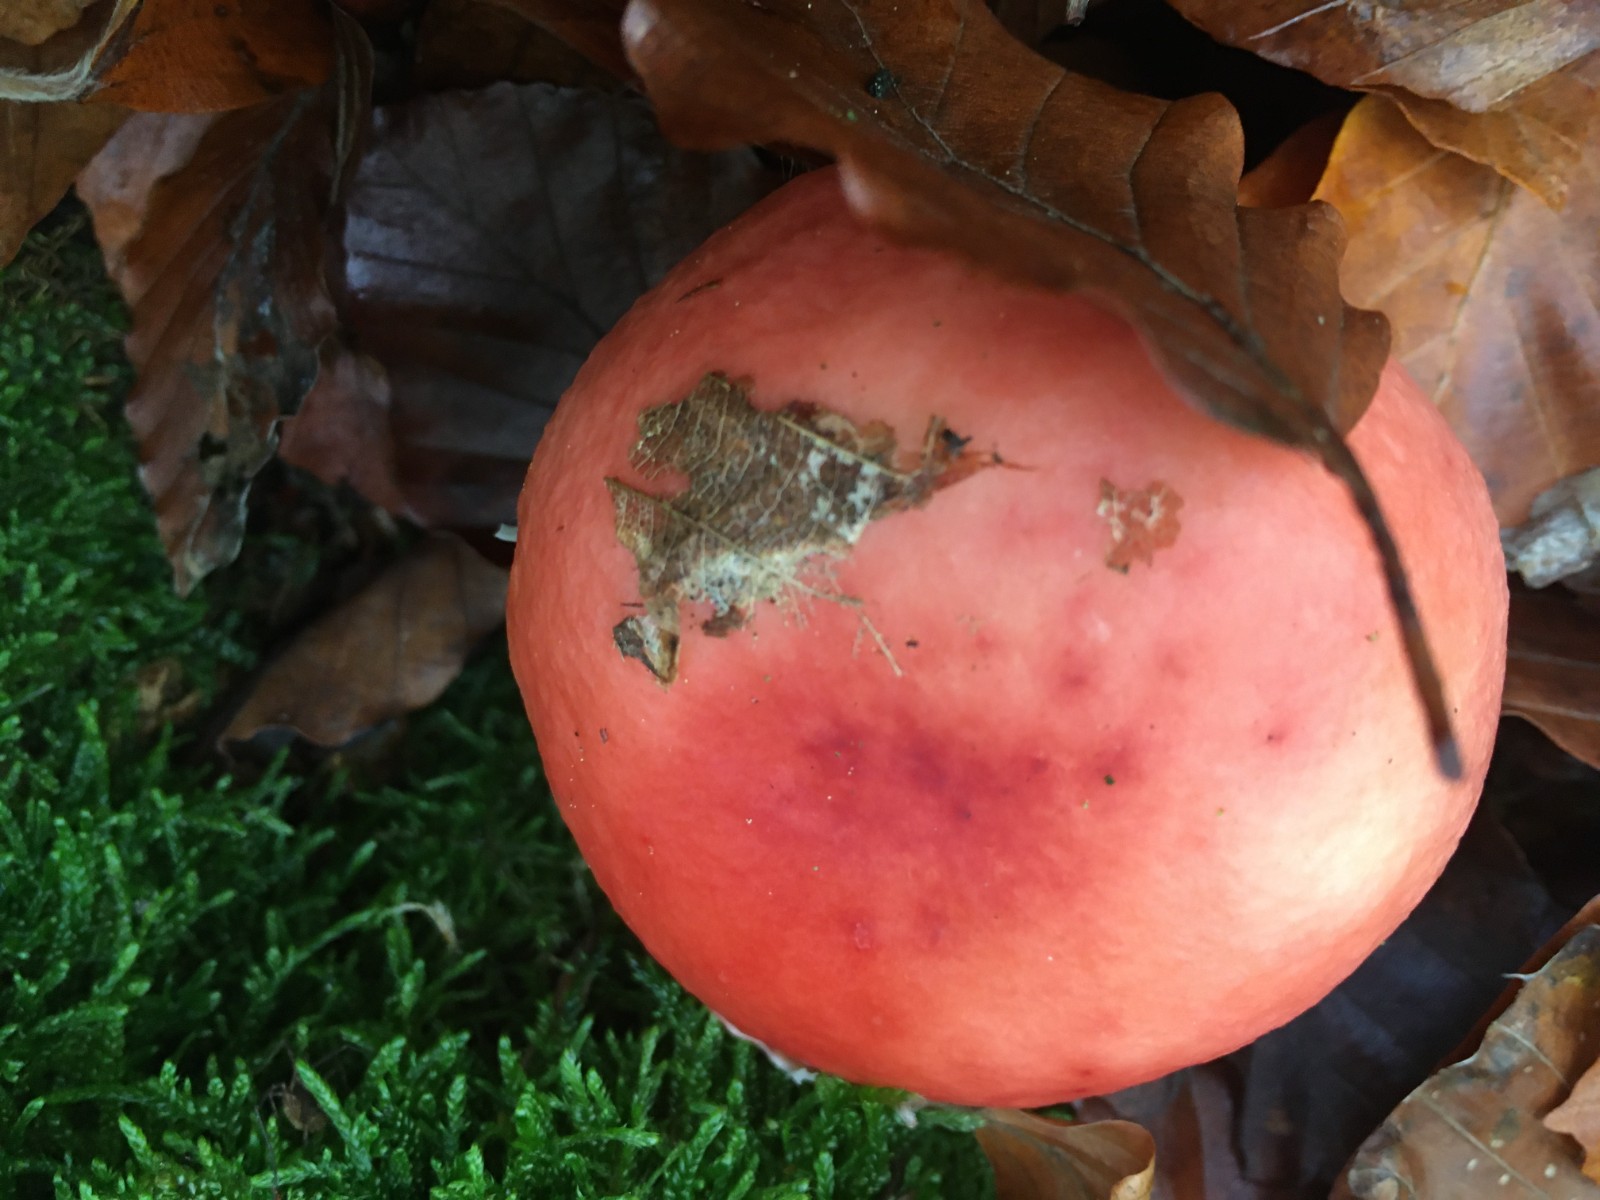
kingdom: Fungi
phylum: Basidiomycota
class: Agaricomycetes
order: Russulales
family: Russulaceae
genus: Russula
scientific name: Russula silvestris
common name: mellemstor gift-skørhat
